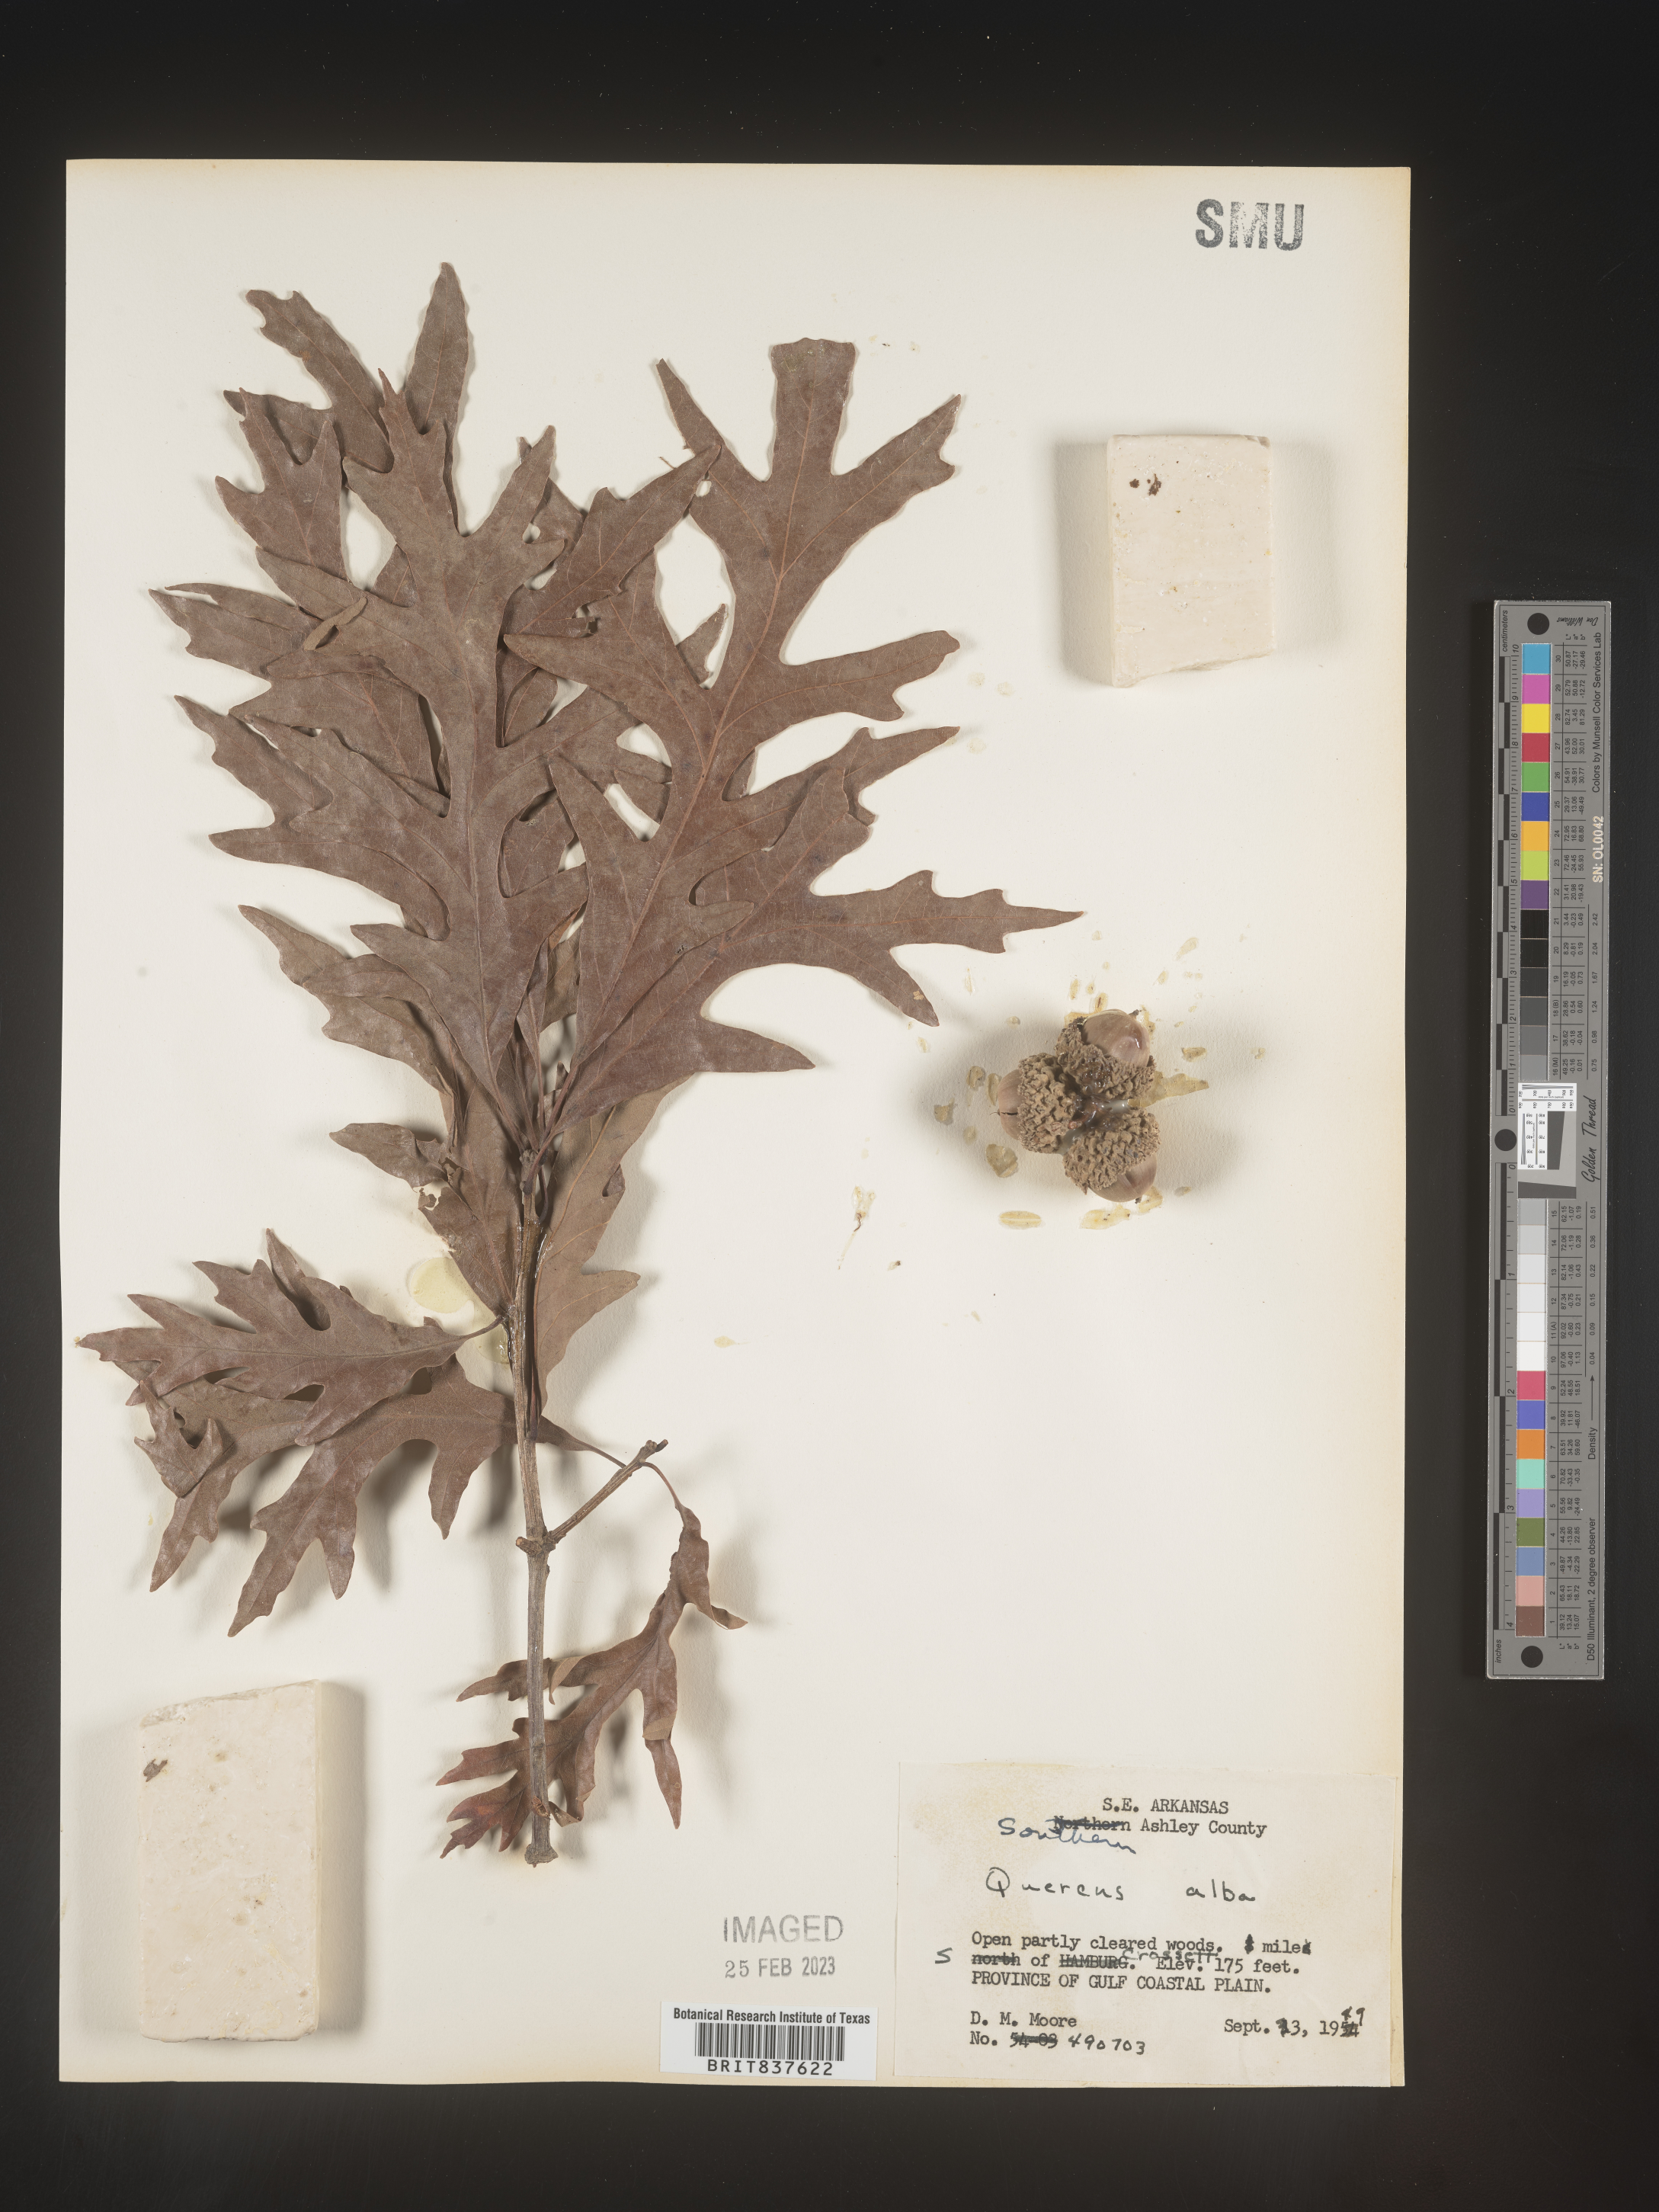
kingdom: Plantae
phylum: Tracheophyta
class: Magnoliopsida
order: Fagales
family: Fagaceae
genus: Quercus
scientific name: Quercus alba
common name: White oak
